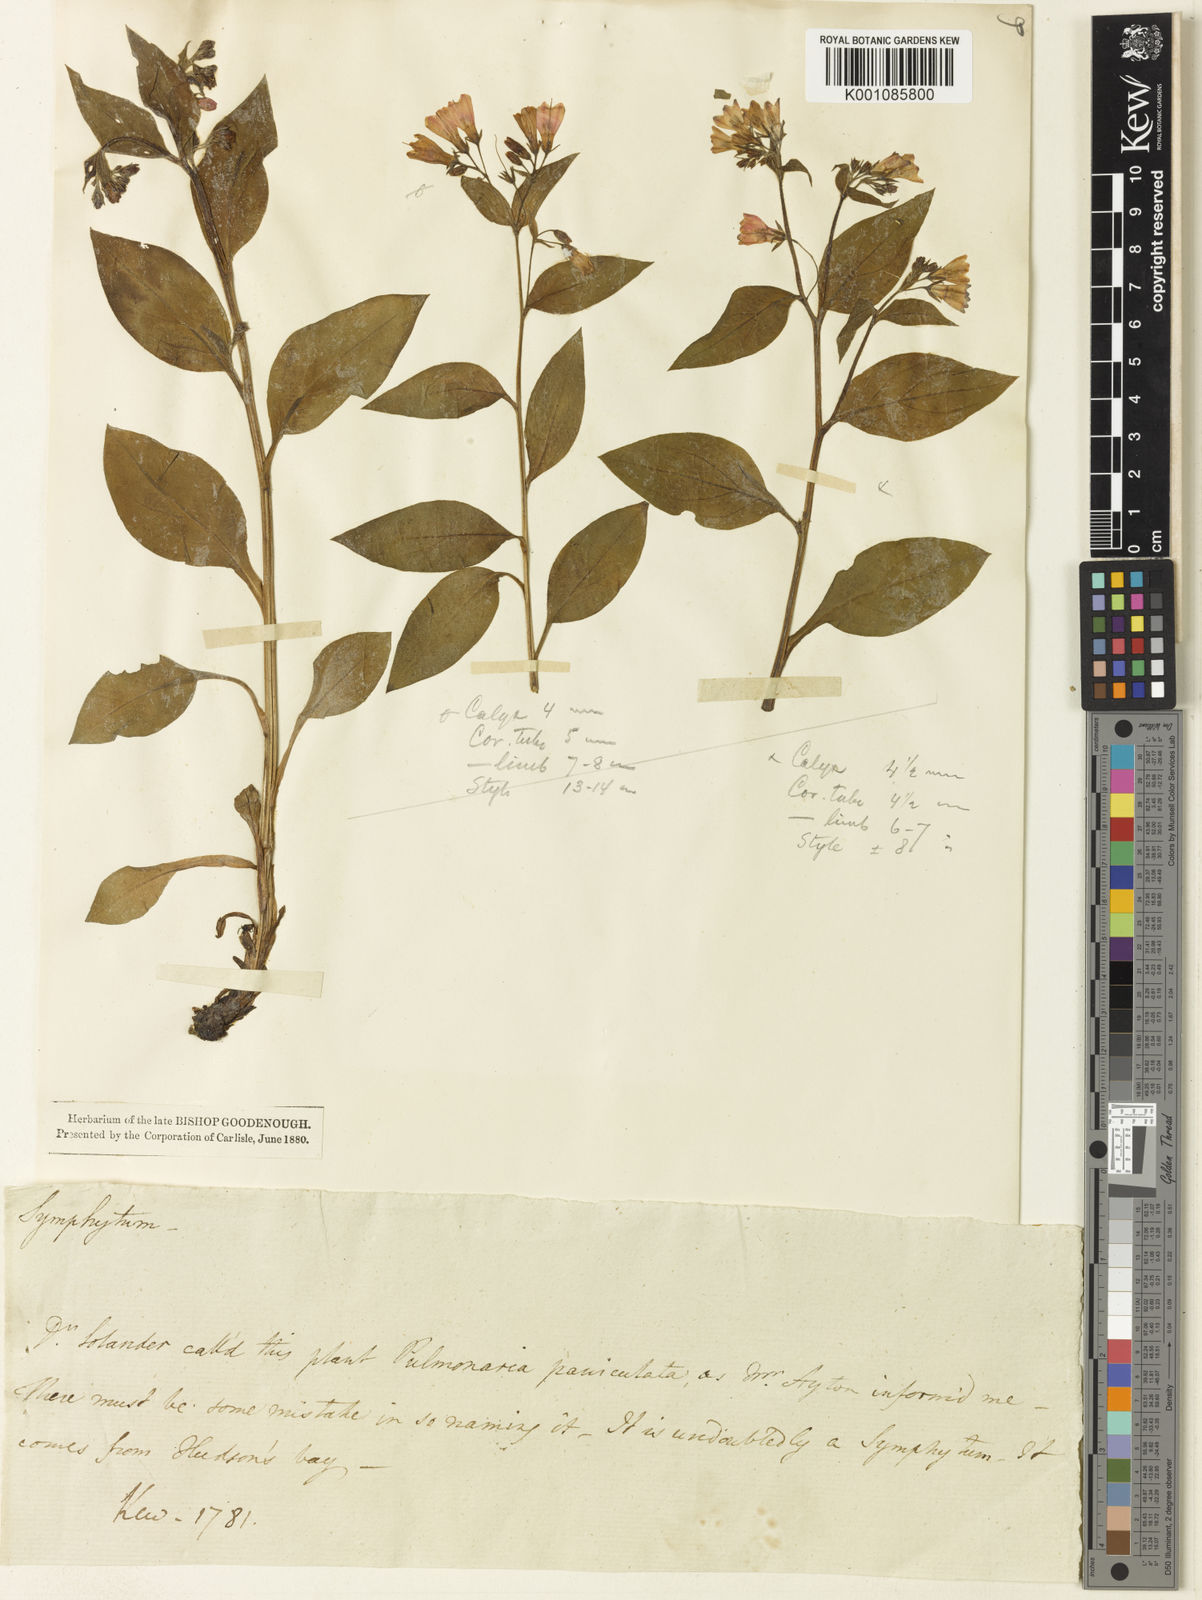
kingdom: Plantae
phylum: Tracheophyta
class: Magnoliopsida
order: Boraginales
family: Boraginaceae
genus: Mertensia
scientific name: Mertensia paniculata
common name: Panicled bluebells
